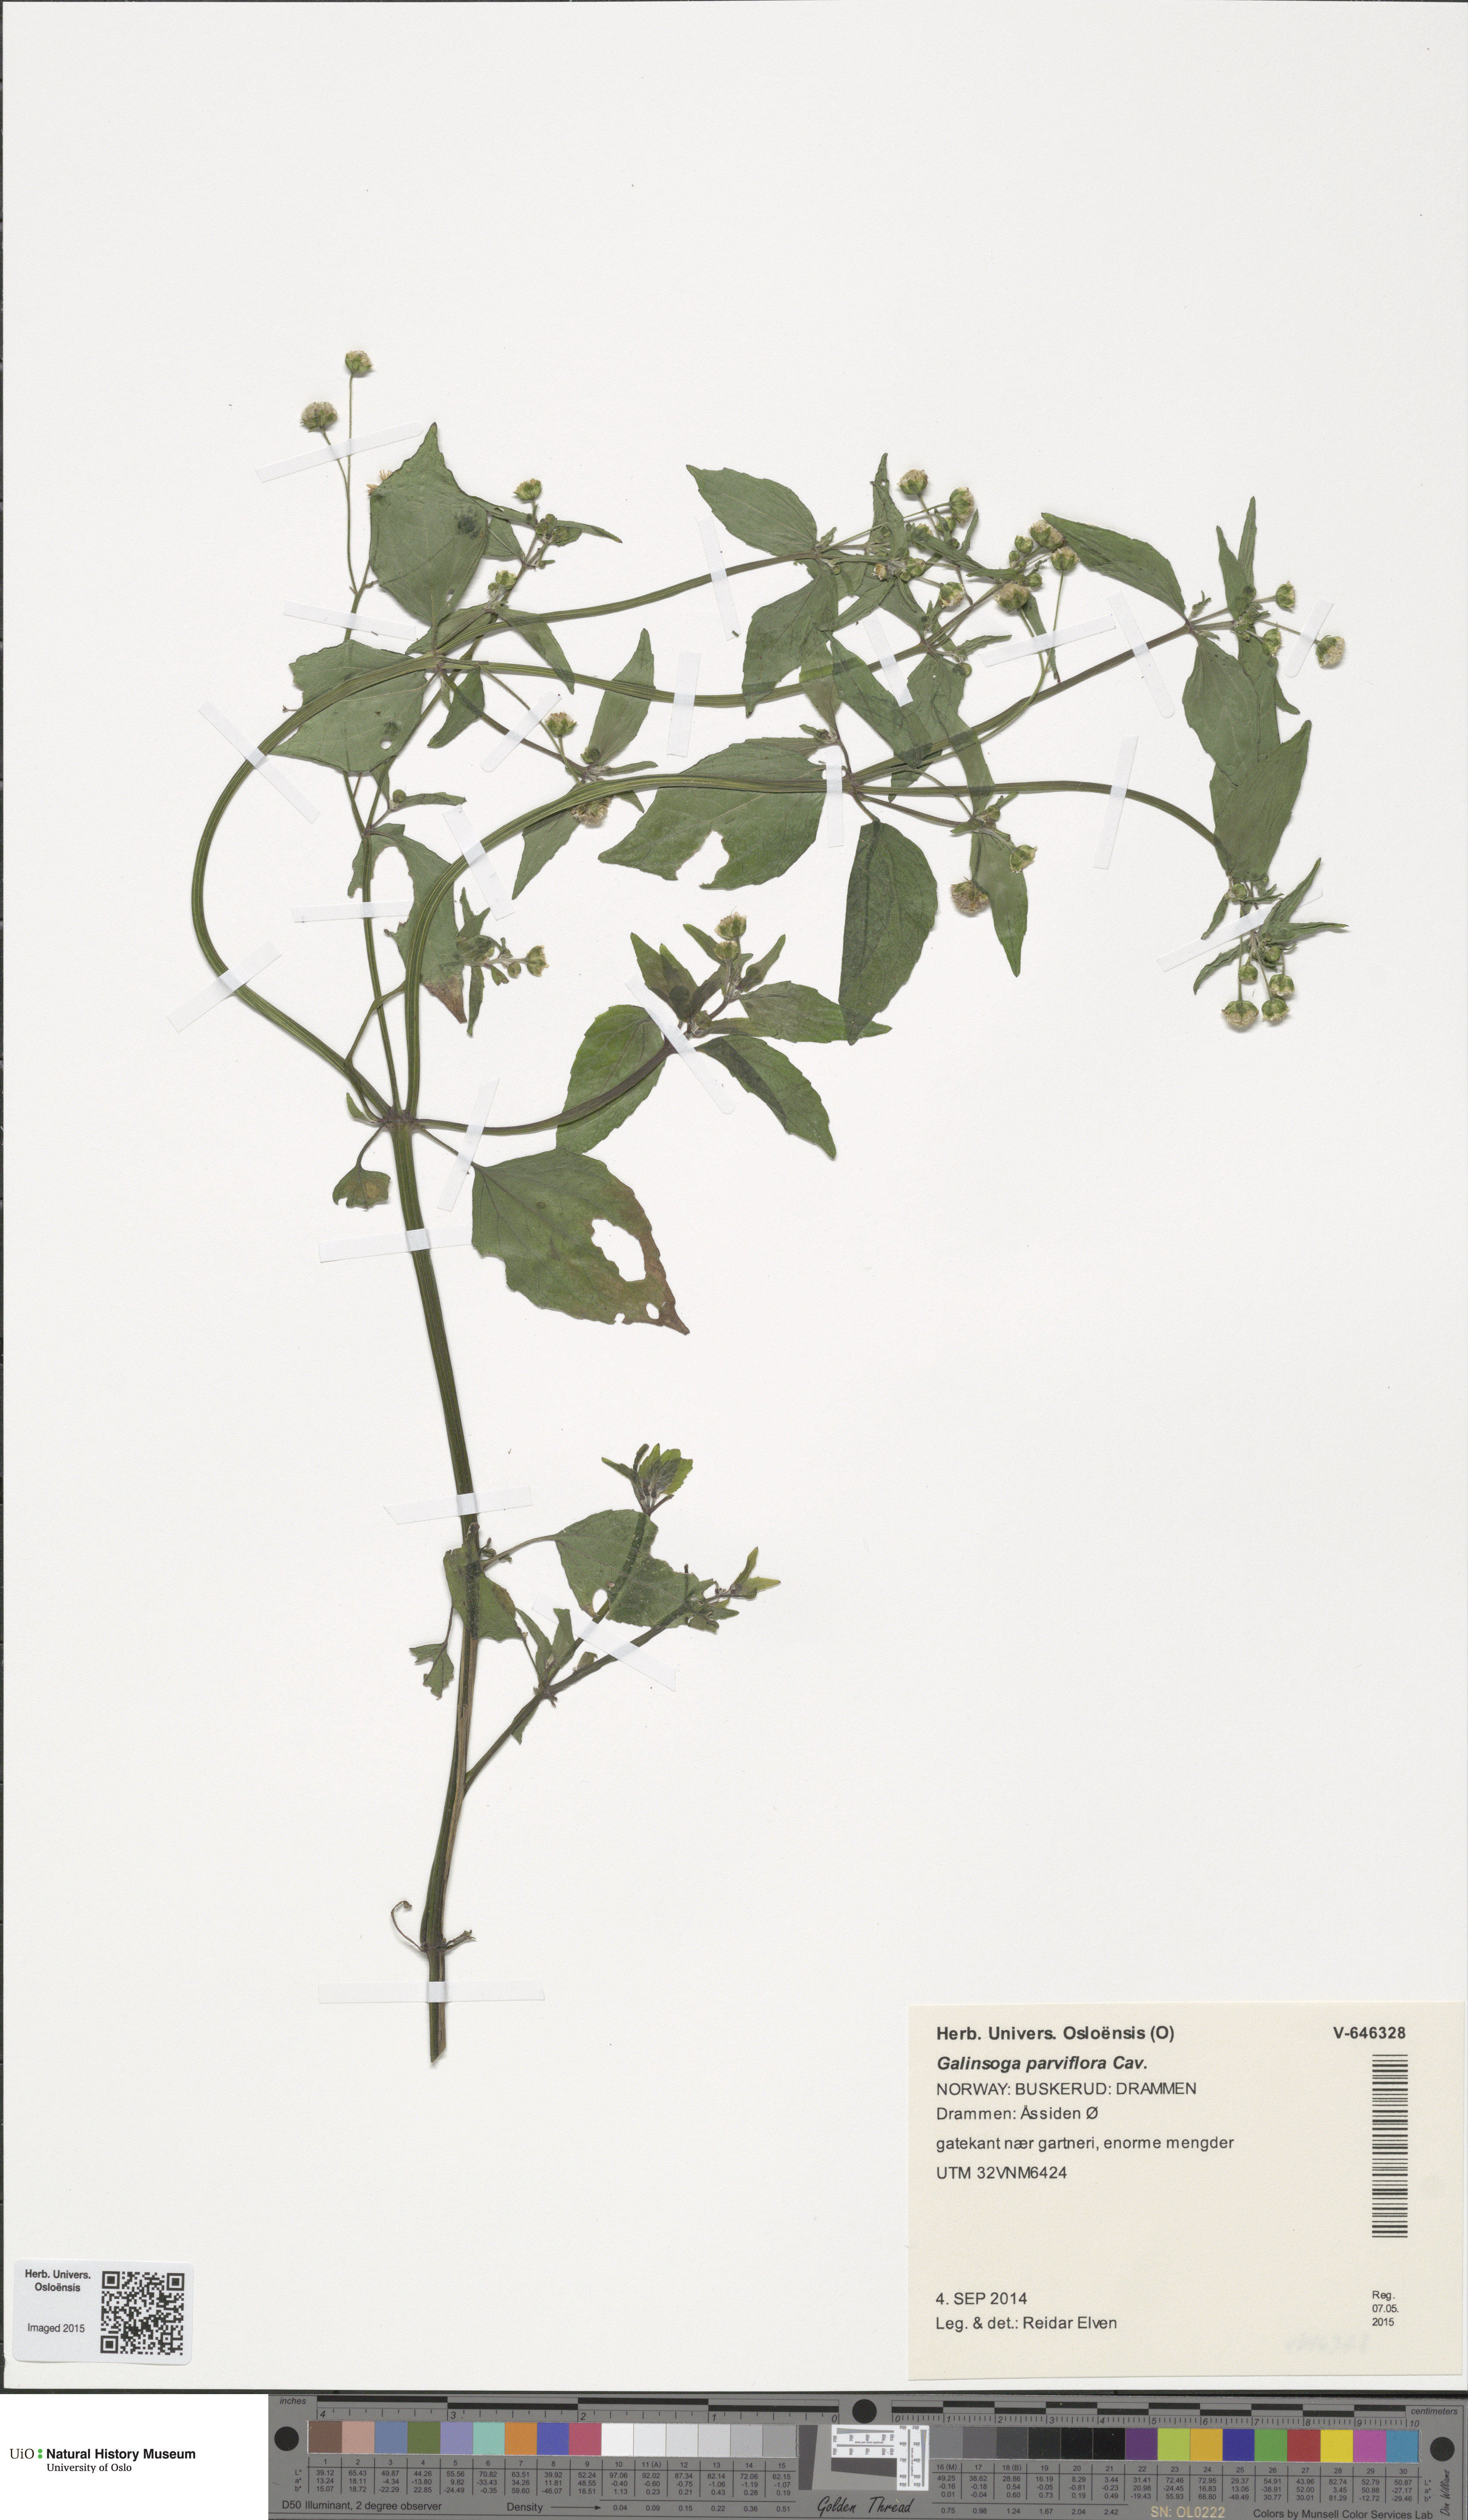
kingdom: Plantae
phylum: Tracheophyta
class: Magnoliopsida
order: Asterales
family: Asteraceae
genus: Galinsoga
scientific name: Galinsoga quadriradiata
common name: Shaggy soldier
